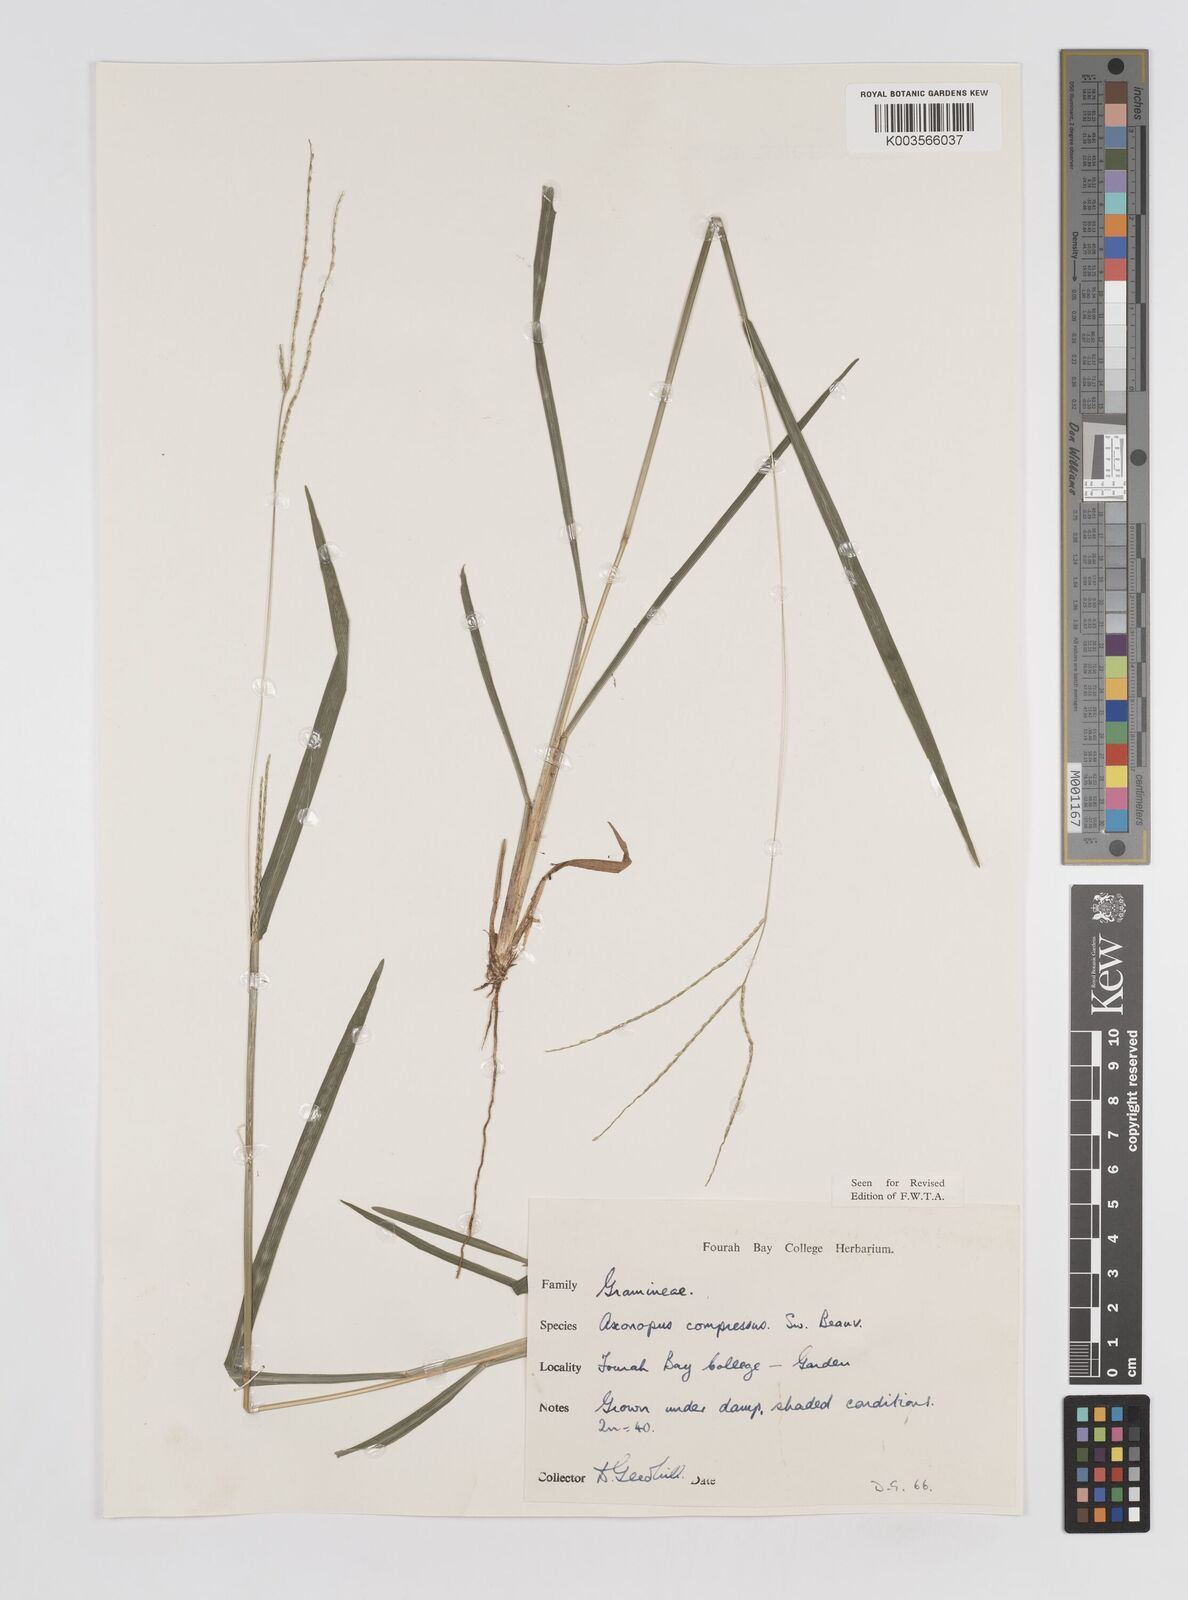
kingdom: Plantae
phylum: Tracheophyta
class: Liliopsida
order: Poales
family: Poaceae
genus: Axonopus
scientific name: Axonopus compressus
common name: American carpet grass
